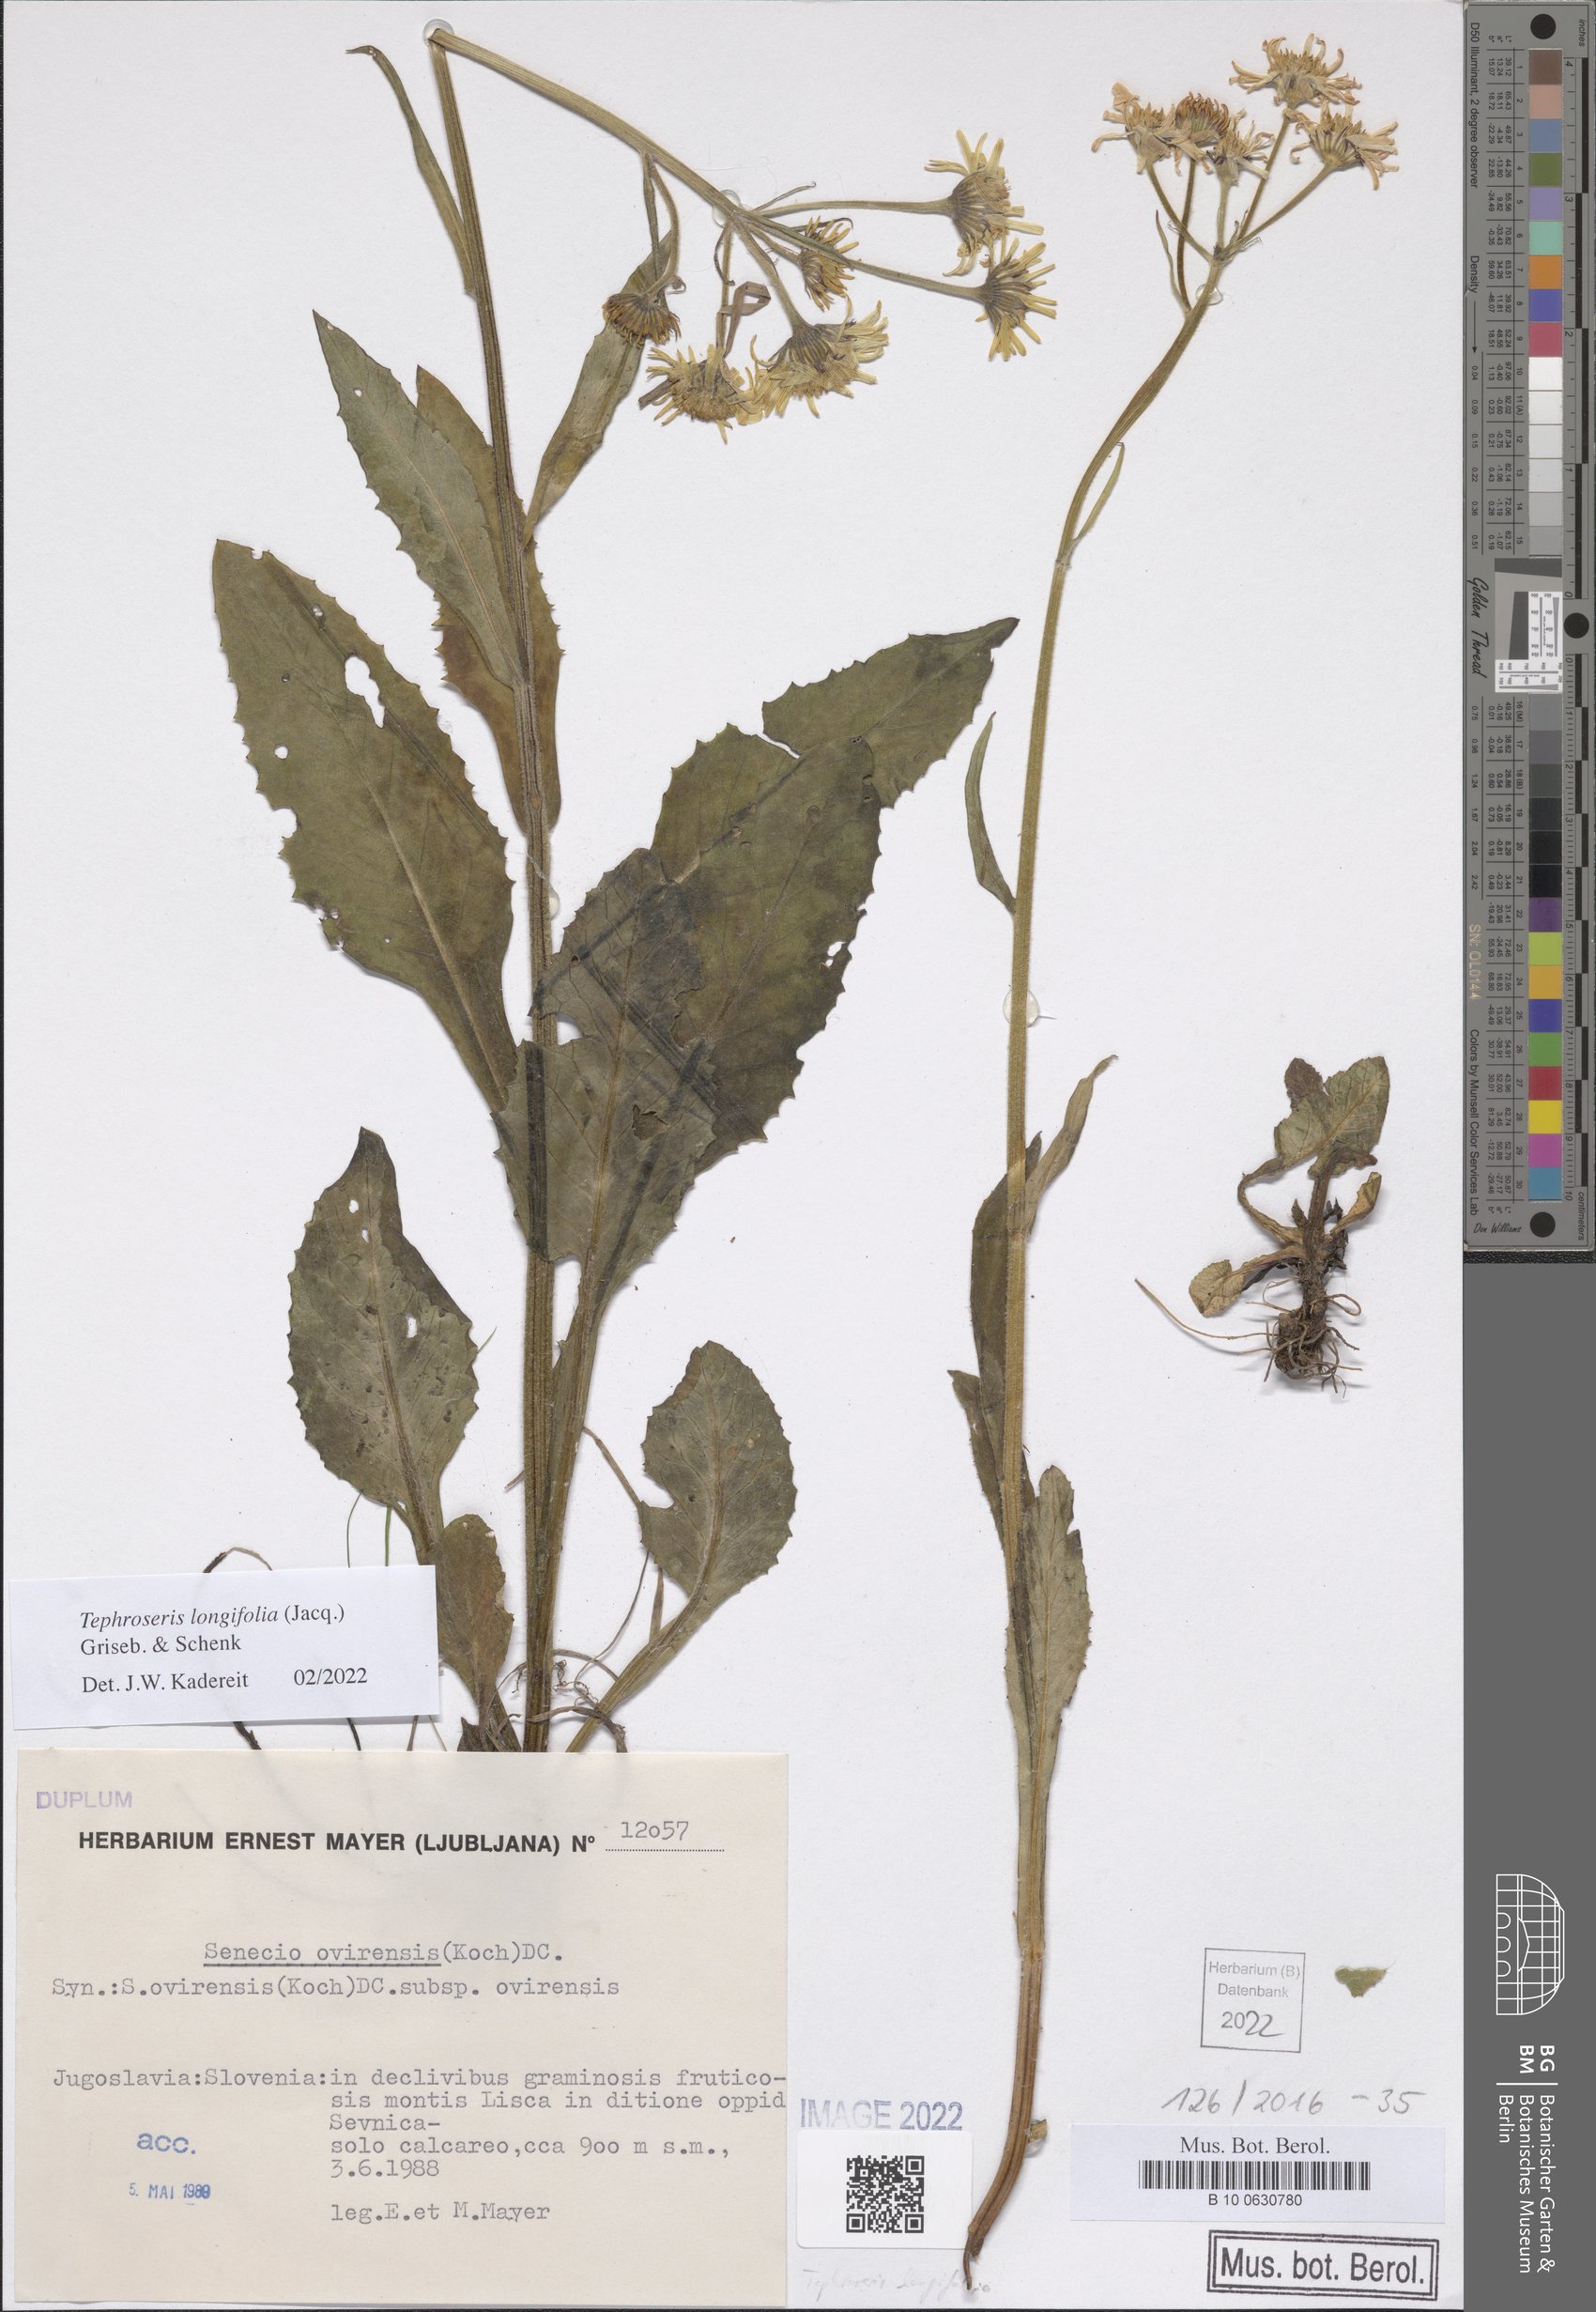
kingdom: Plantae
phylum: Tracheophyta
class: Magnoliopsida
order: Asterales
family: Asteraceae
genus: Tephroseris
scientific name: Tephroseris longifolia
